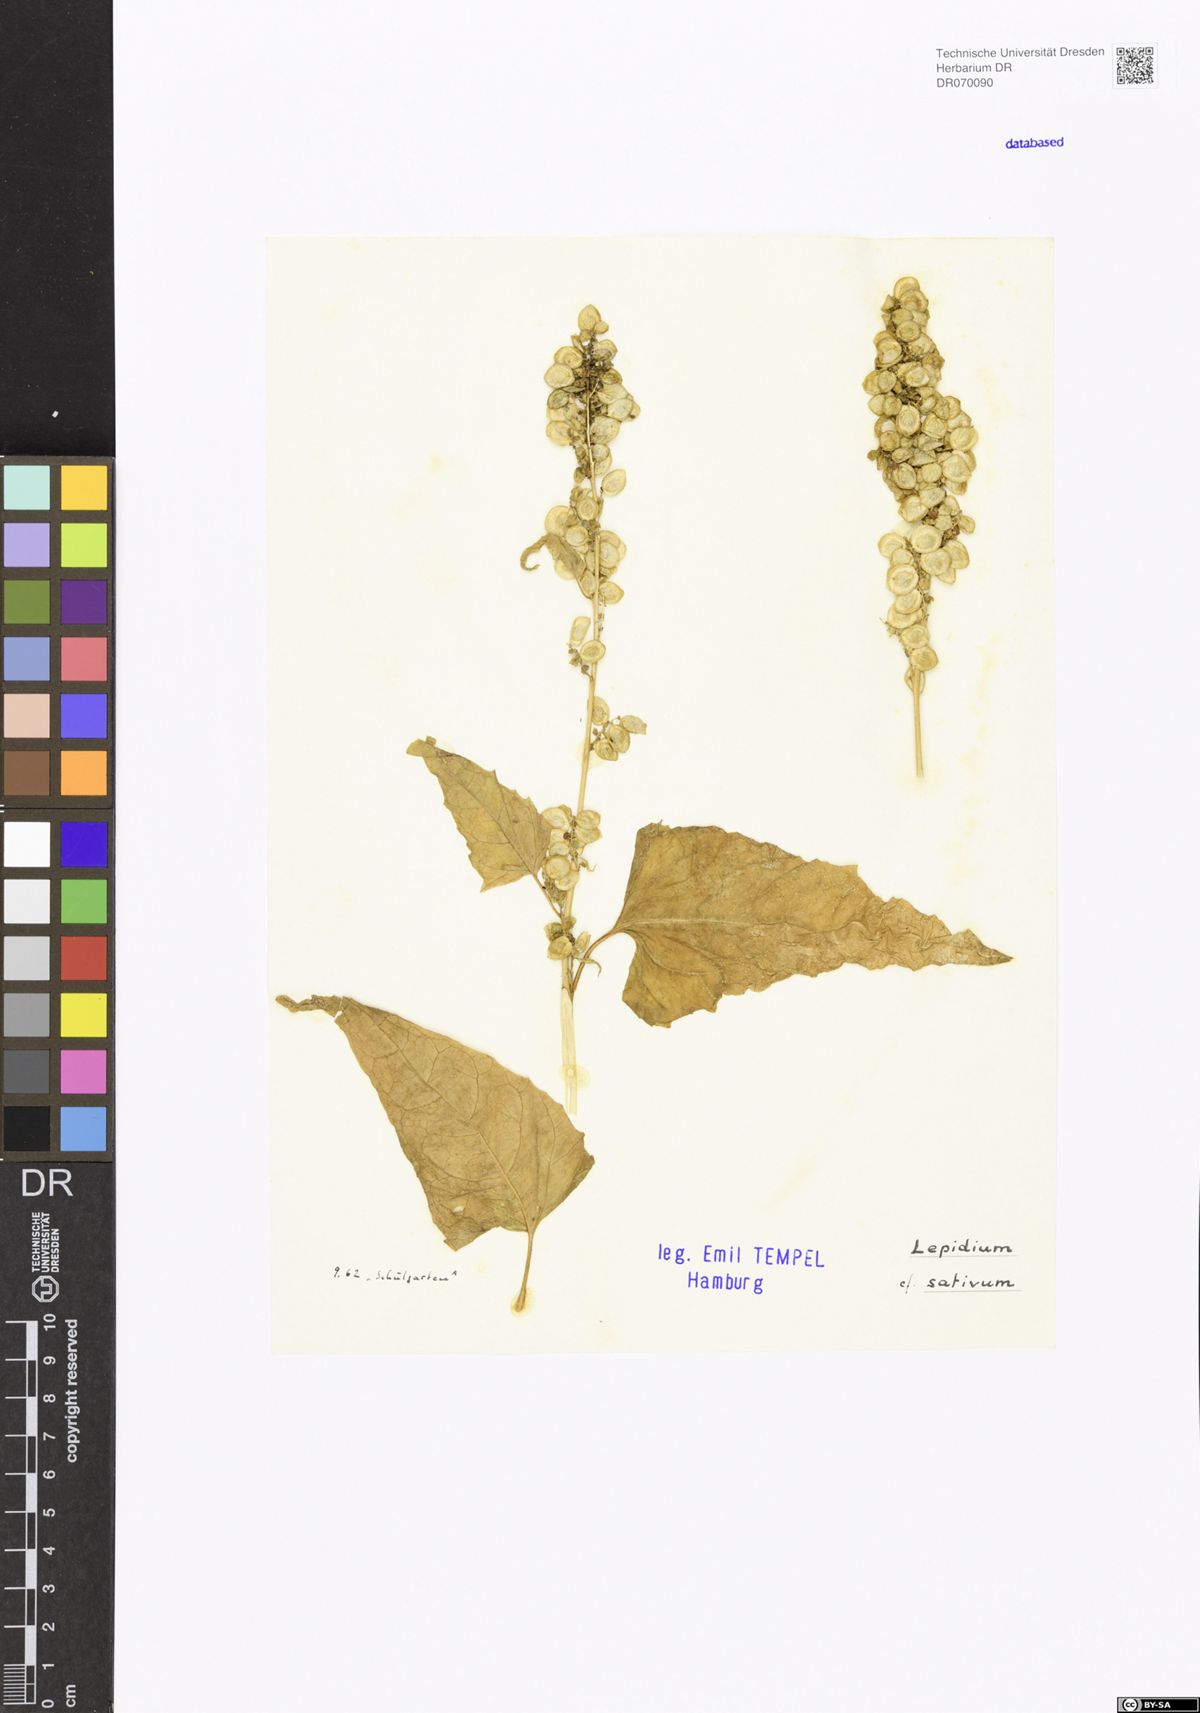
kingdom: Plantae
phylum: Tracheophyta
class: Magnoliopsida
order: Brassicales
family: Brassicaceae
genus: Lepidium
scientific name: Lepidium sativum
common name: Garden cress
